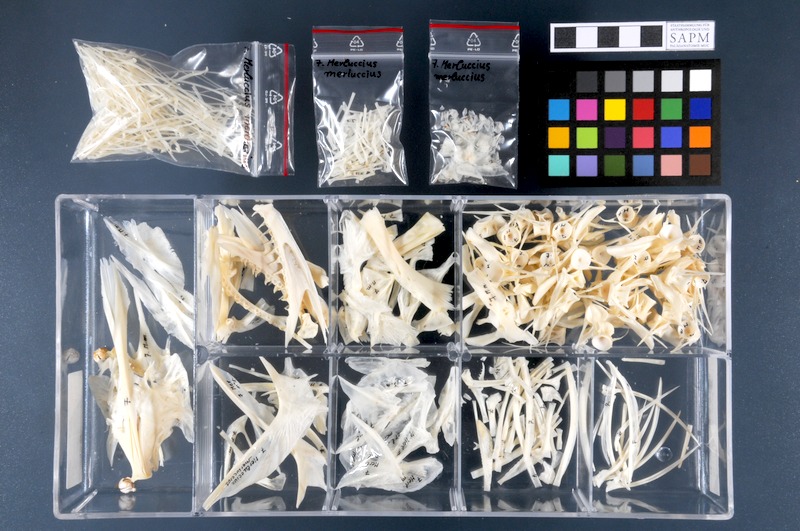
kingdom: Animalia
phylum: Chordata
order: Gadiformes
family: Merlucciidae
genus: Merluccius
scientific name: Merluccius merluccius
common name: European hake
